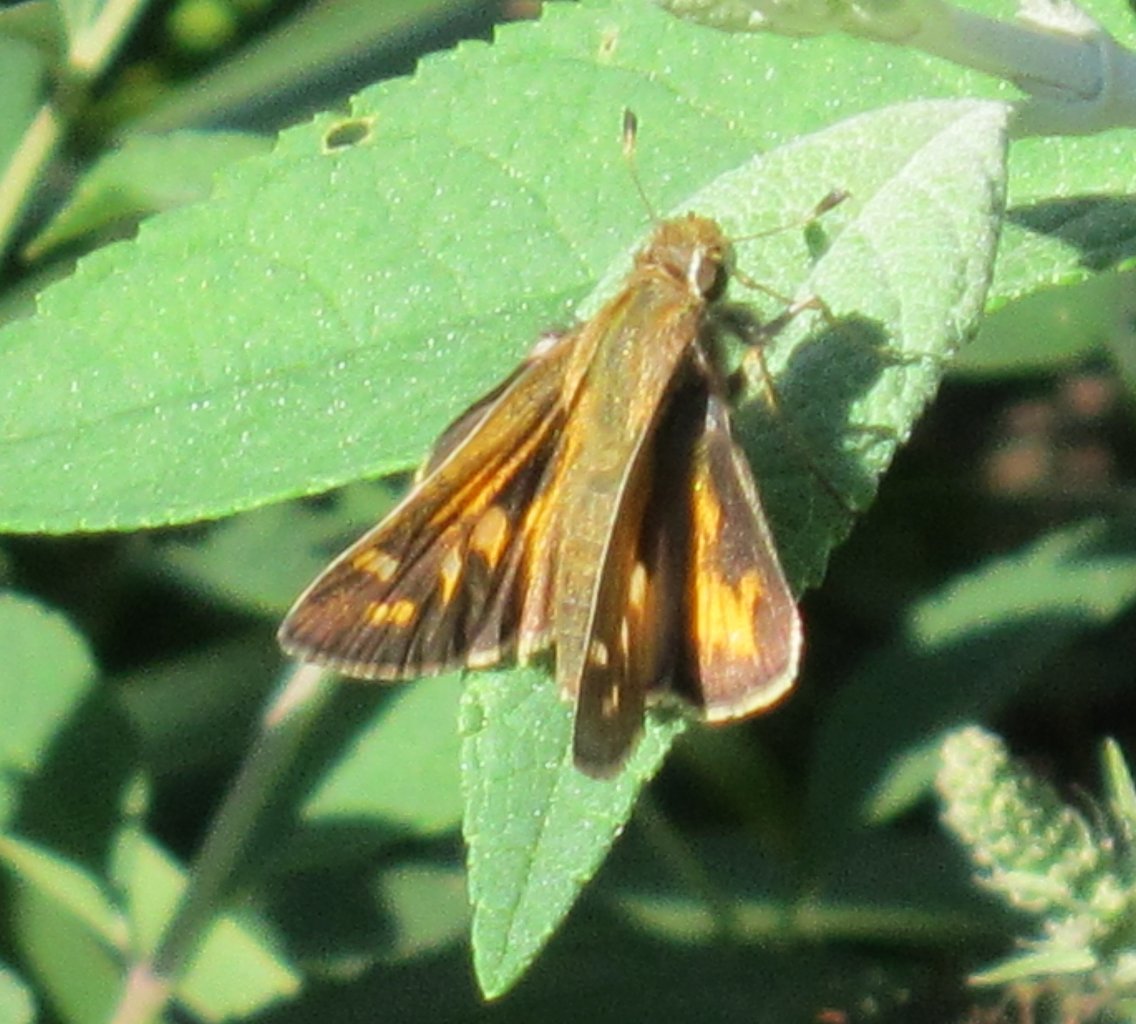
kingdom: Animalia
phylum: Arthropoda
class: Insecta
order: Lepidoptera
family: Hesperiidae
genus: Atalopedes
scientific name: Atalopedes campestris
